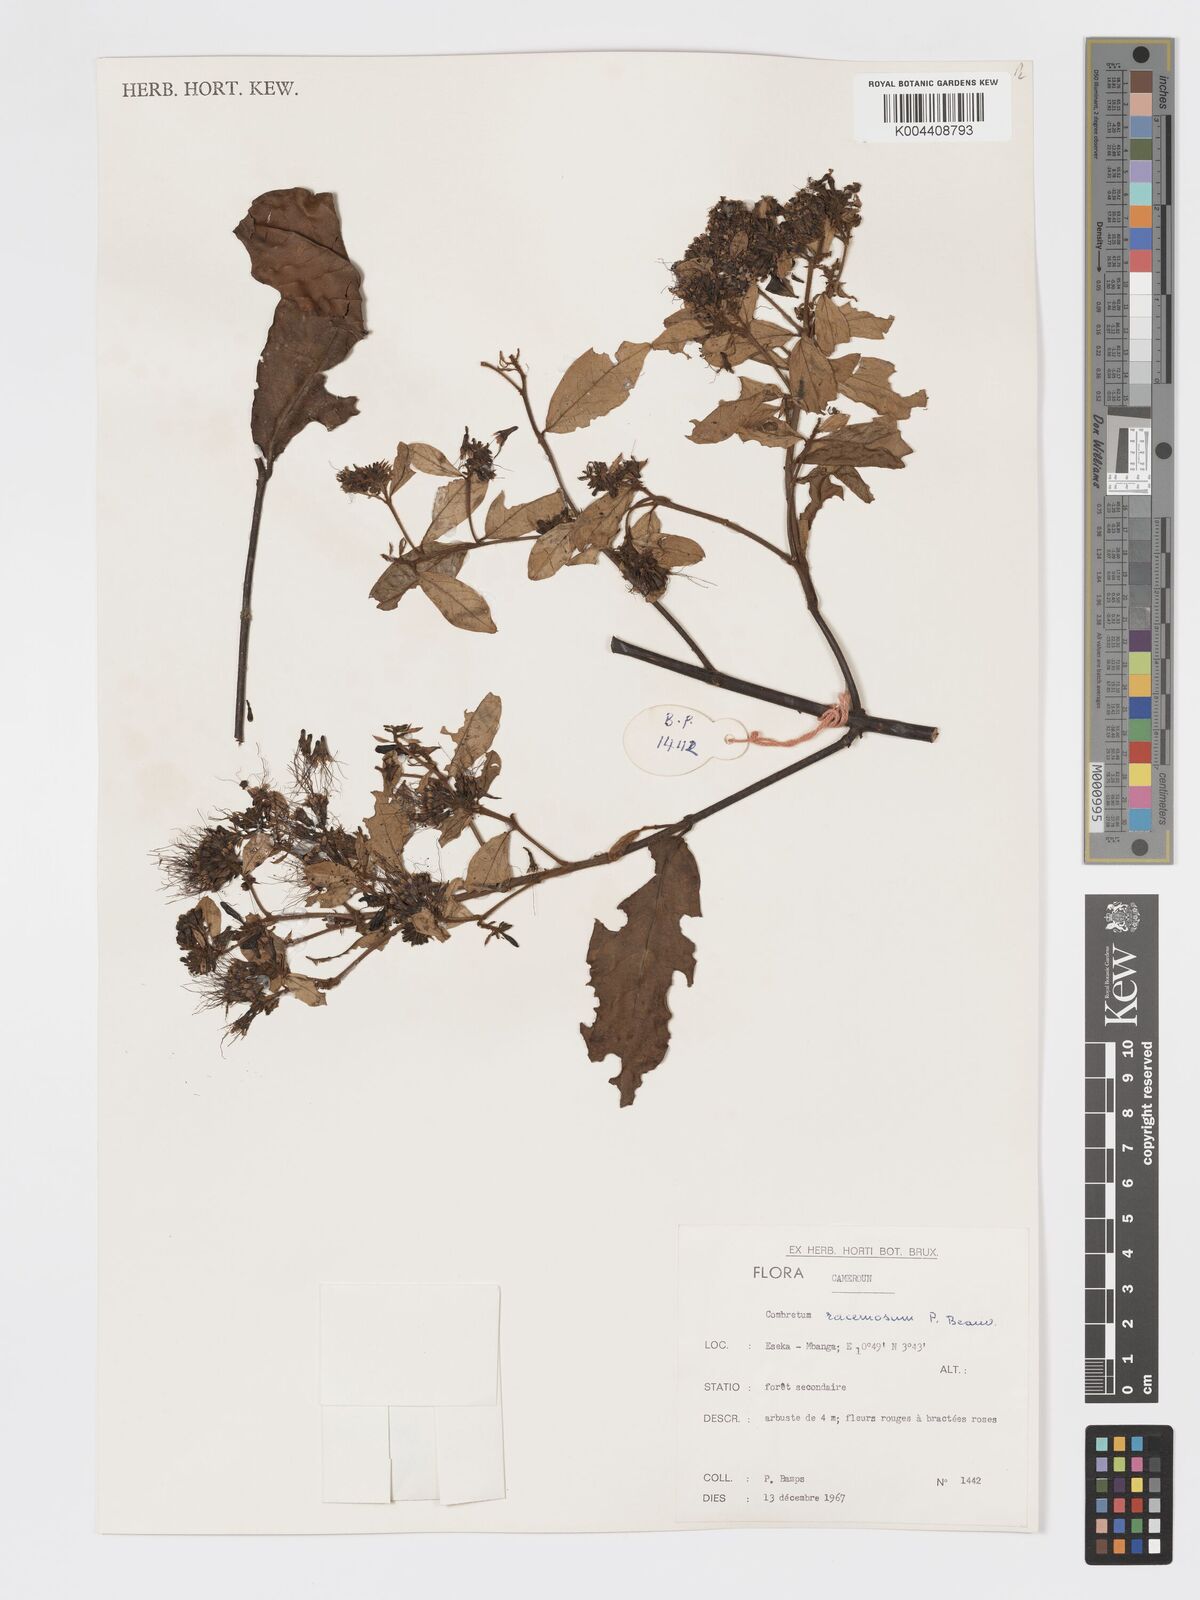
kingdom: Plantae
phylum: Tracheophyta
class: Magnoliopsida
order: Myrtales
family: Combretaceae
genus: Combretum
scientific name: Combretum racemosum
